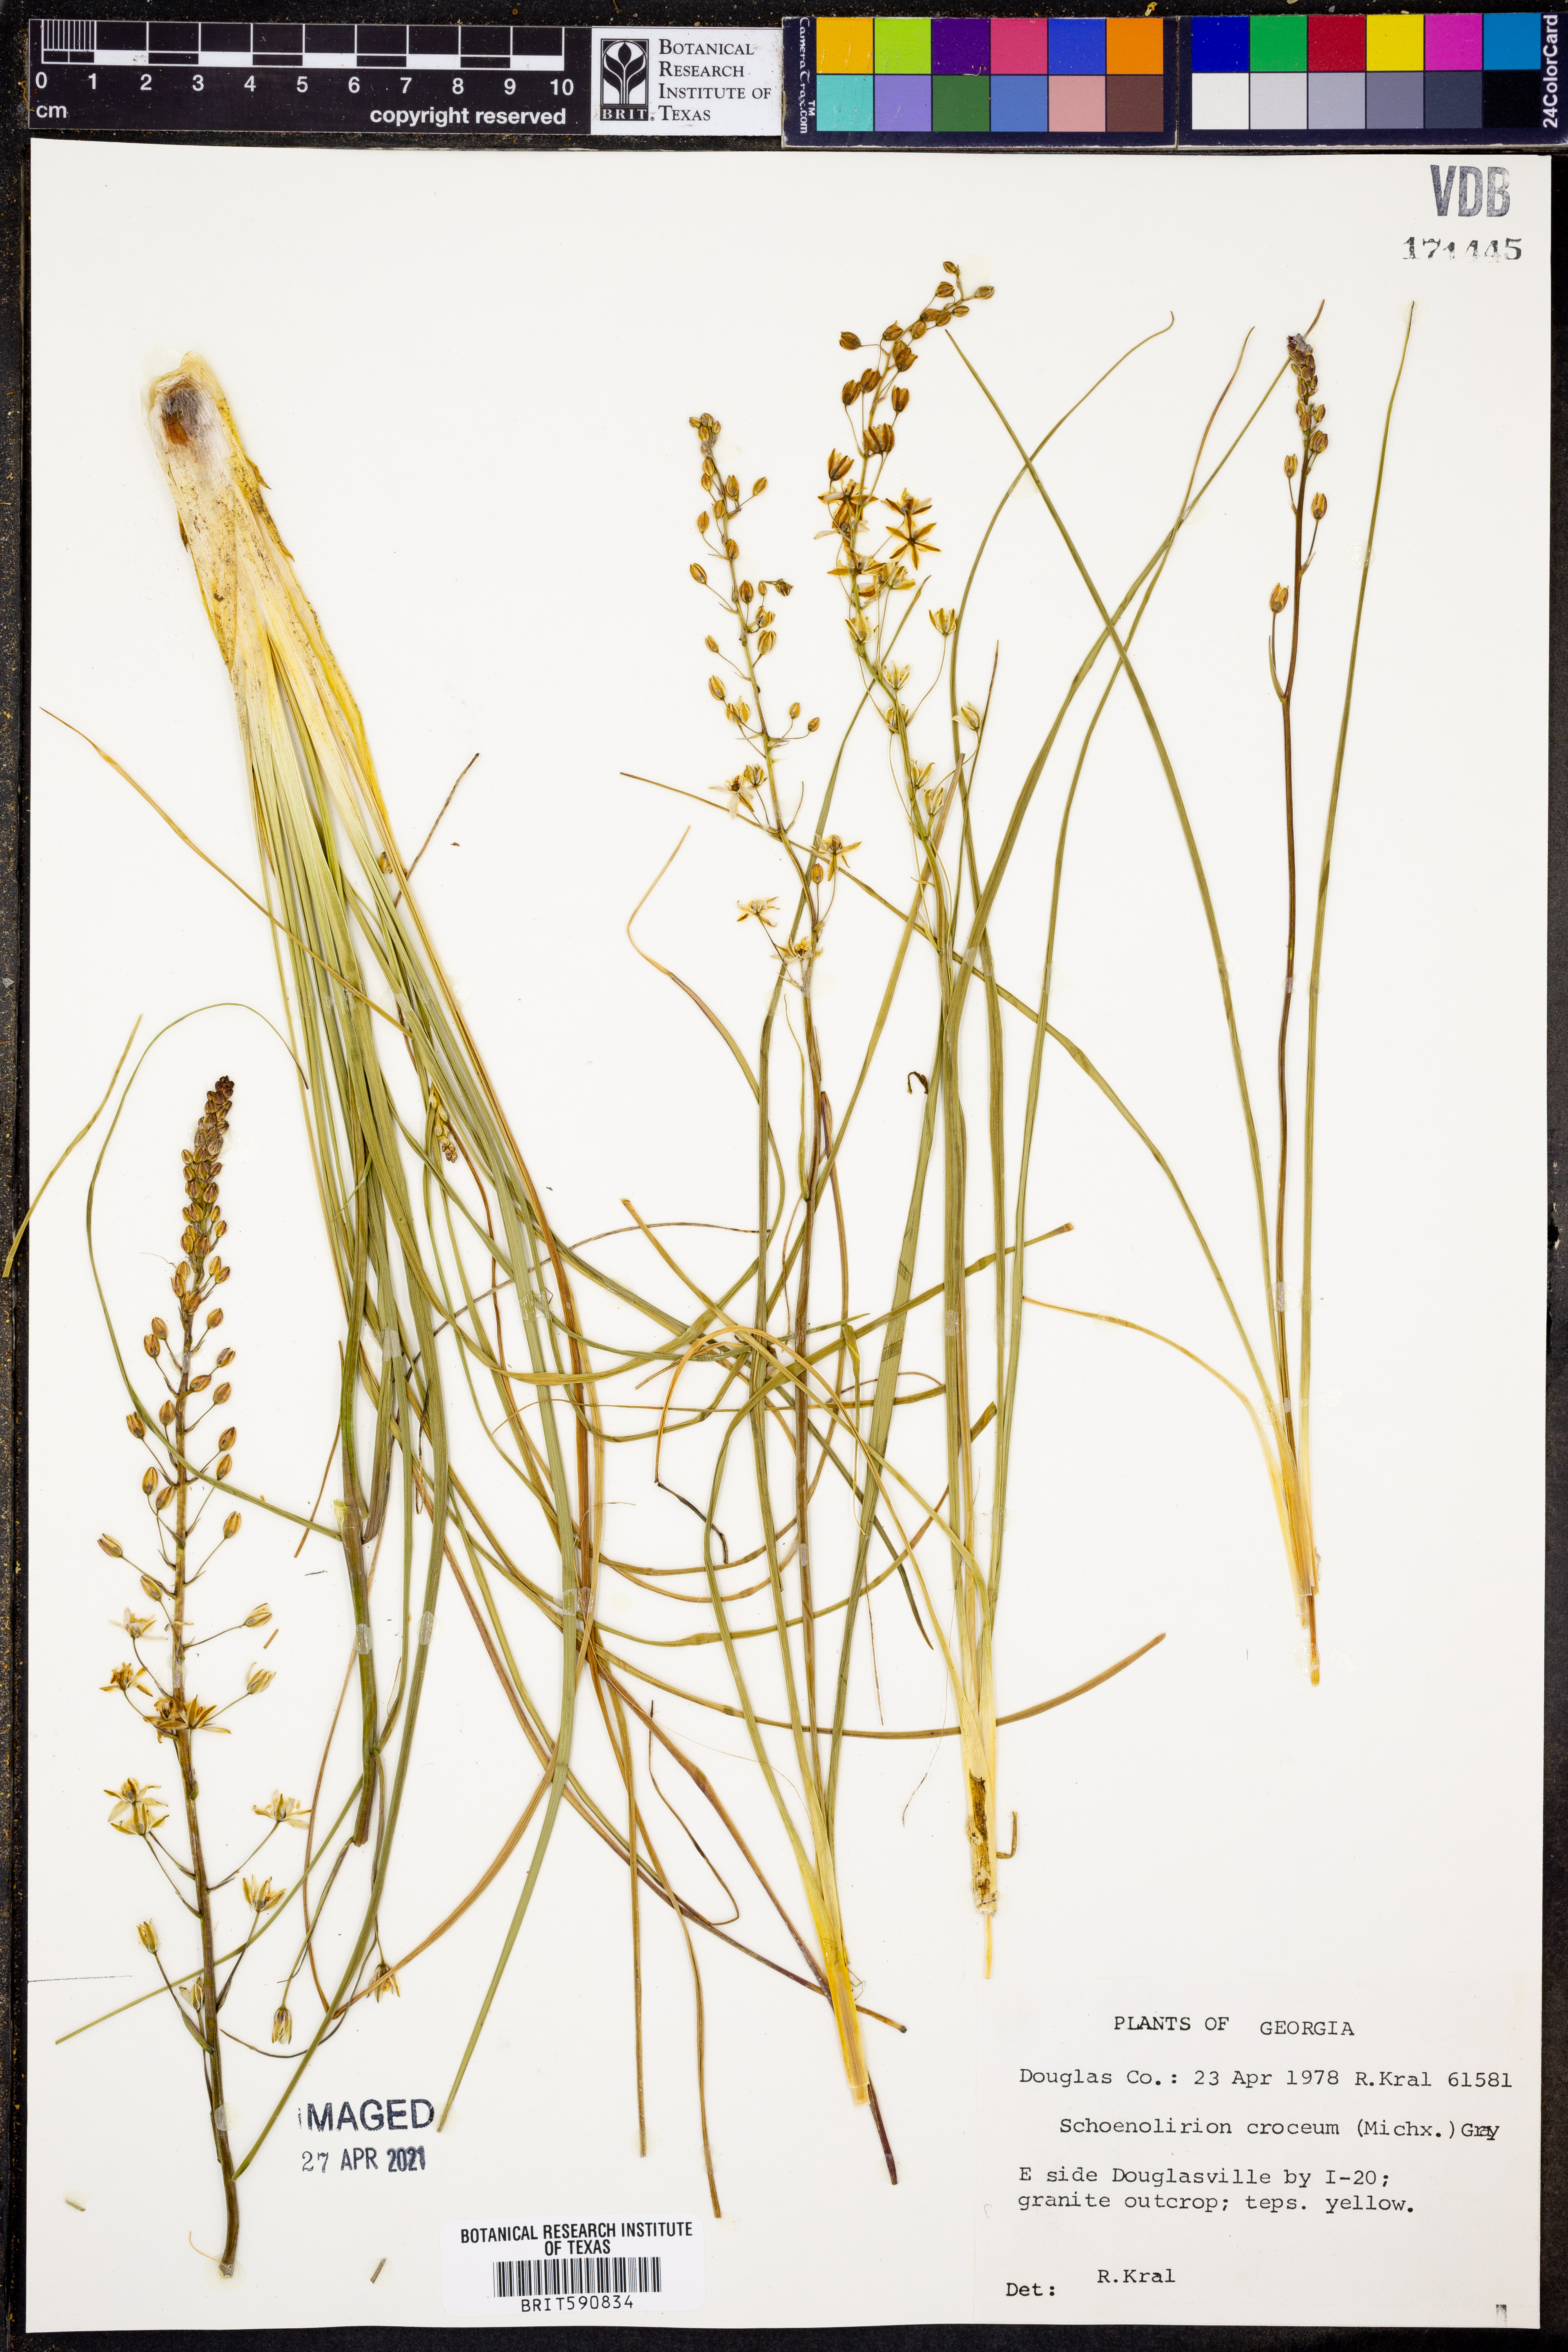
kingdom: Plantae
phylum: Tracheophyta
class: Liliopsida
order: Asparagales
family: Asparagaceae
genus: Schoenolirion
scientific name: Schoenolirion croceum
